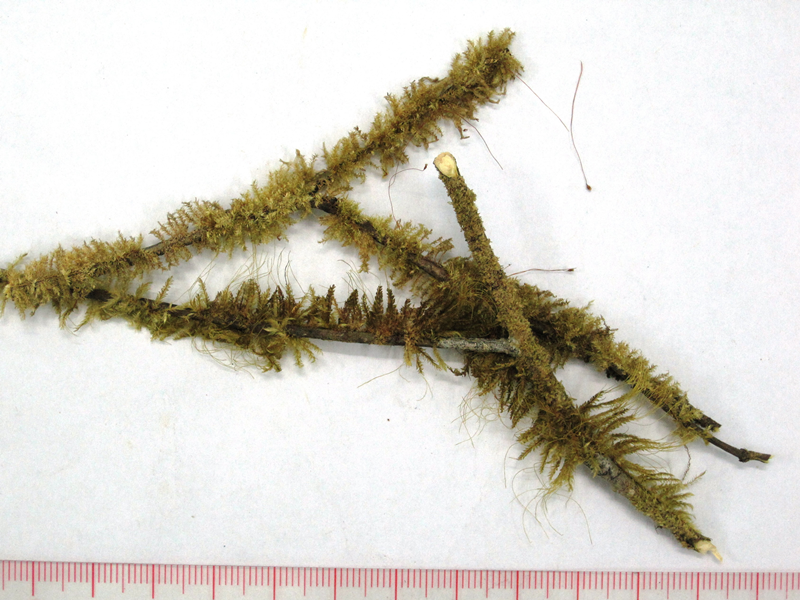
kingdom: Plantae
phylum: Bryophyta
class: Bryopsida
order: Hypnales
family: Pylaisiadelphaceae
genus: Isocladiella
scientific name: Isocladiella surcularis
